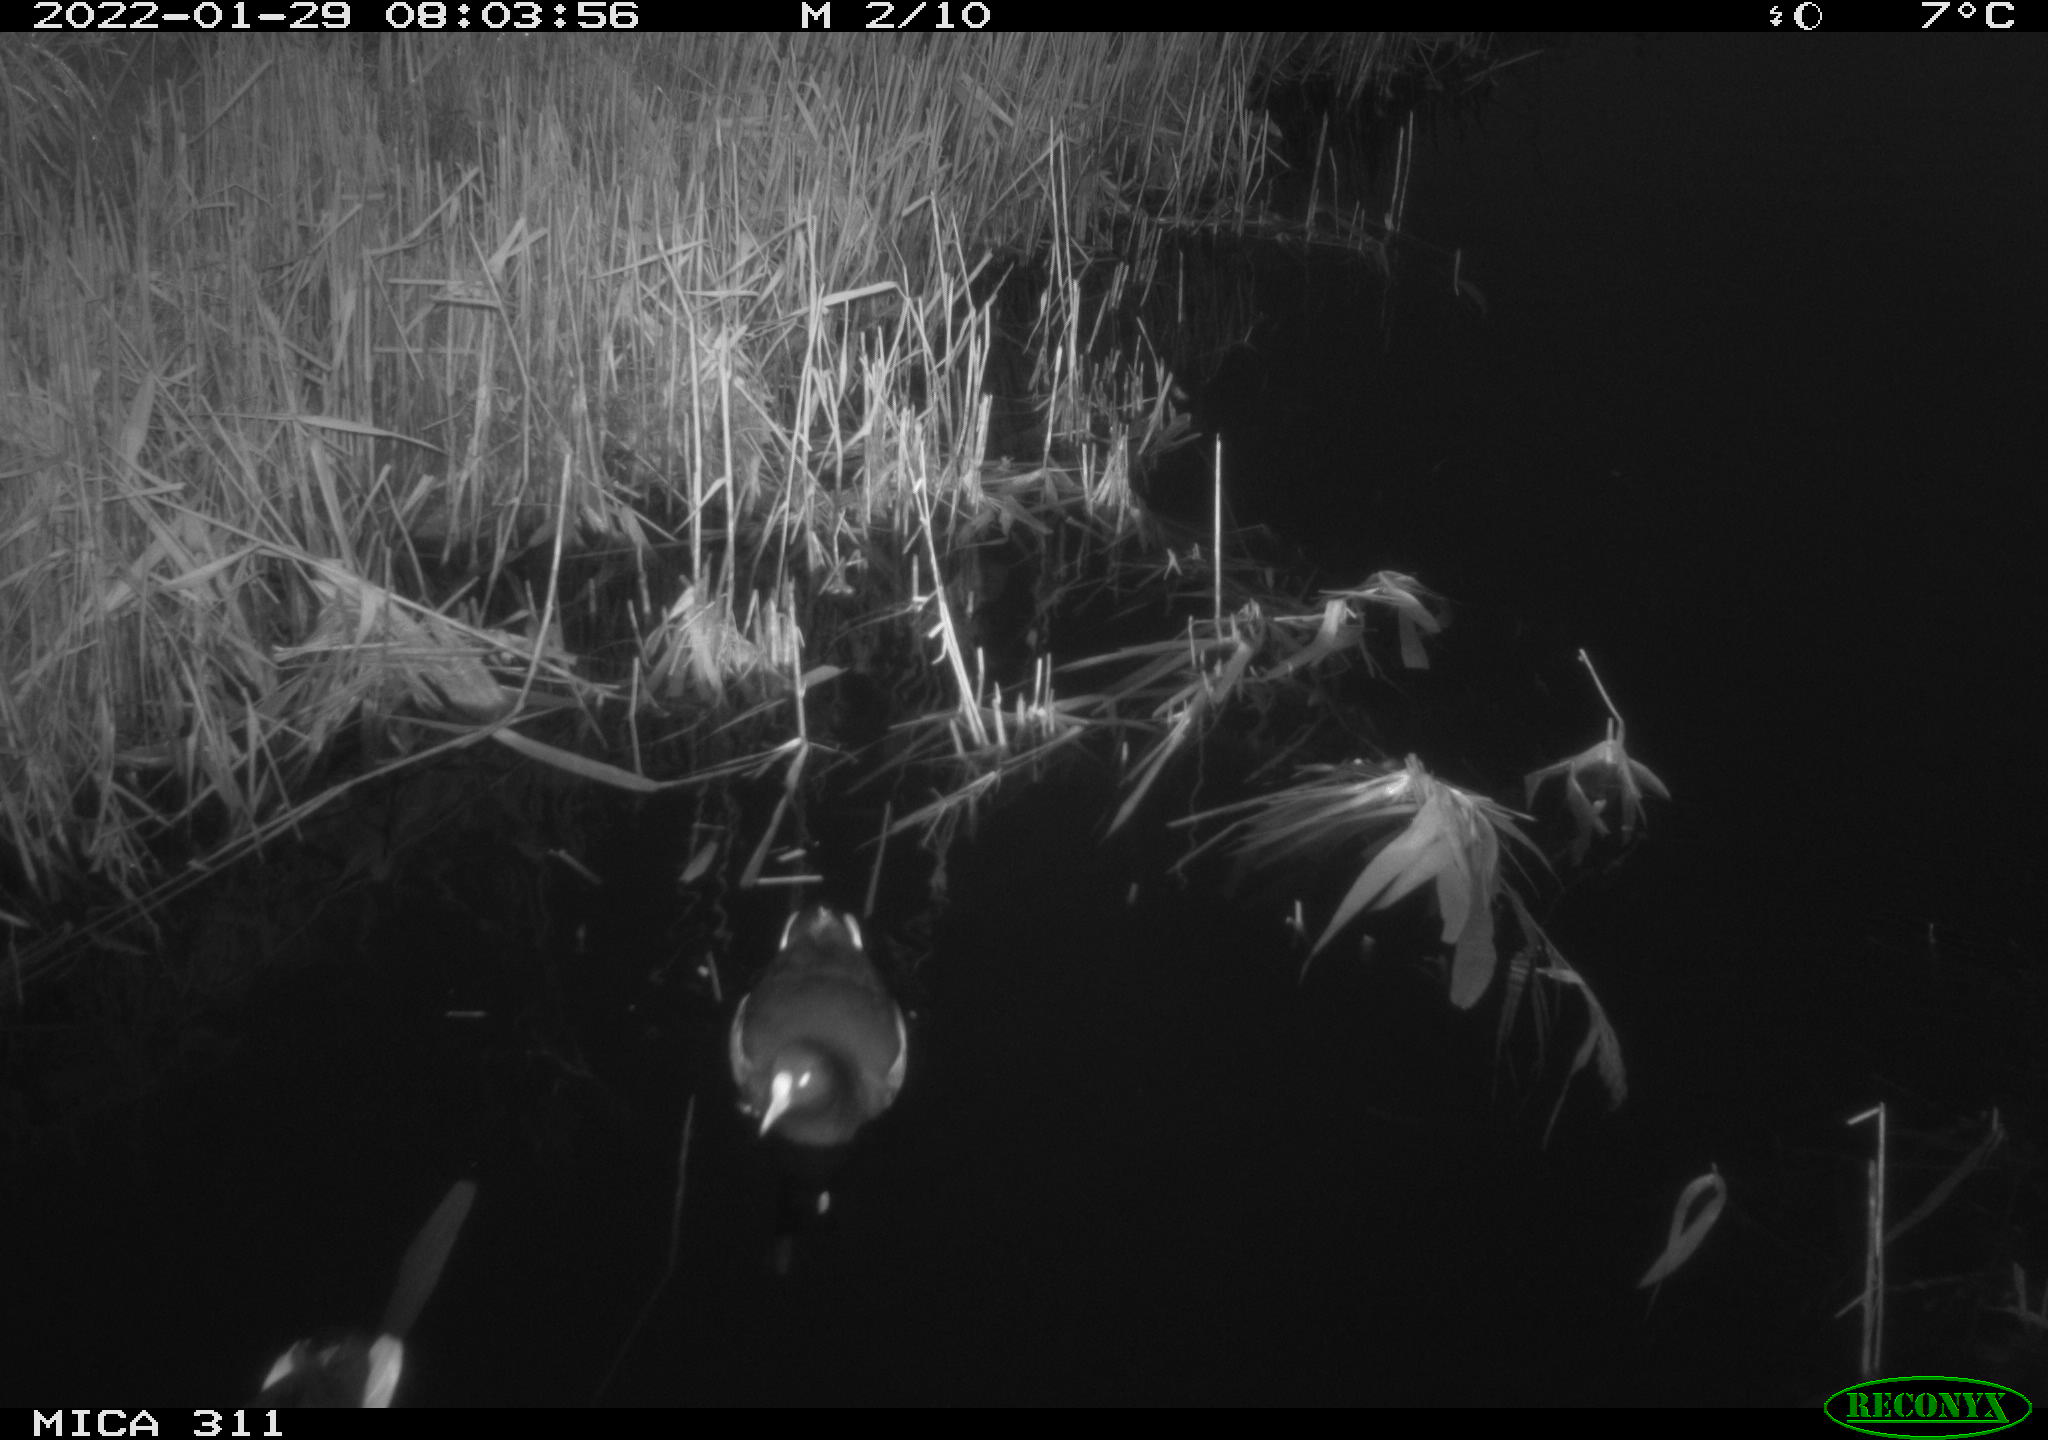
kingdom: Animalia
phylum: Chordata
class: Aves
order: Gruiformes
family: Rallidae
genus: Gallinula
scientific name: Gallinula chloropus
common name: Common moorhen
